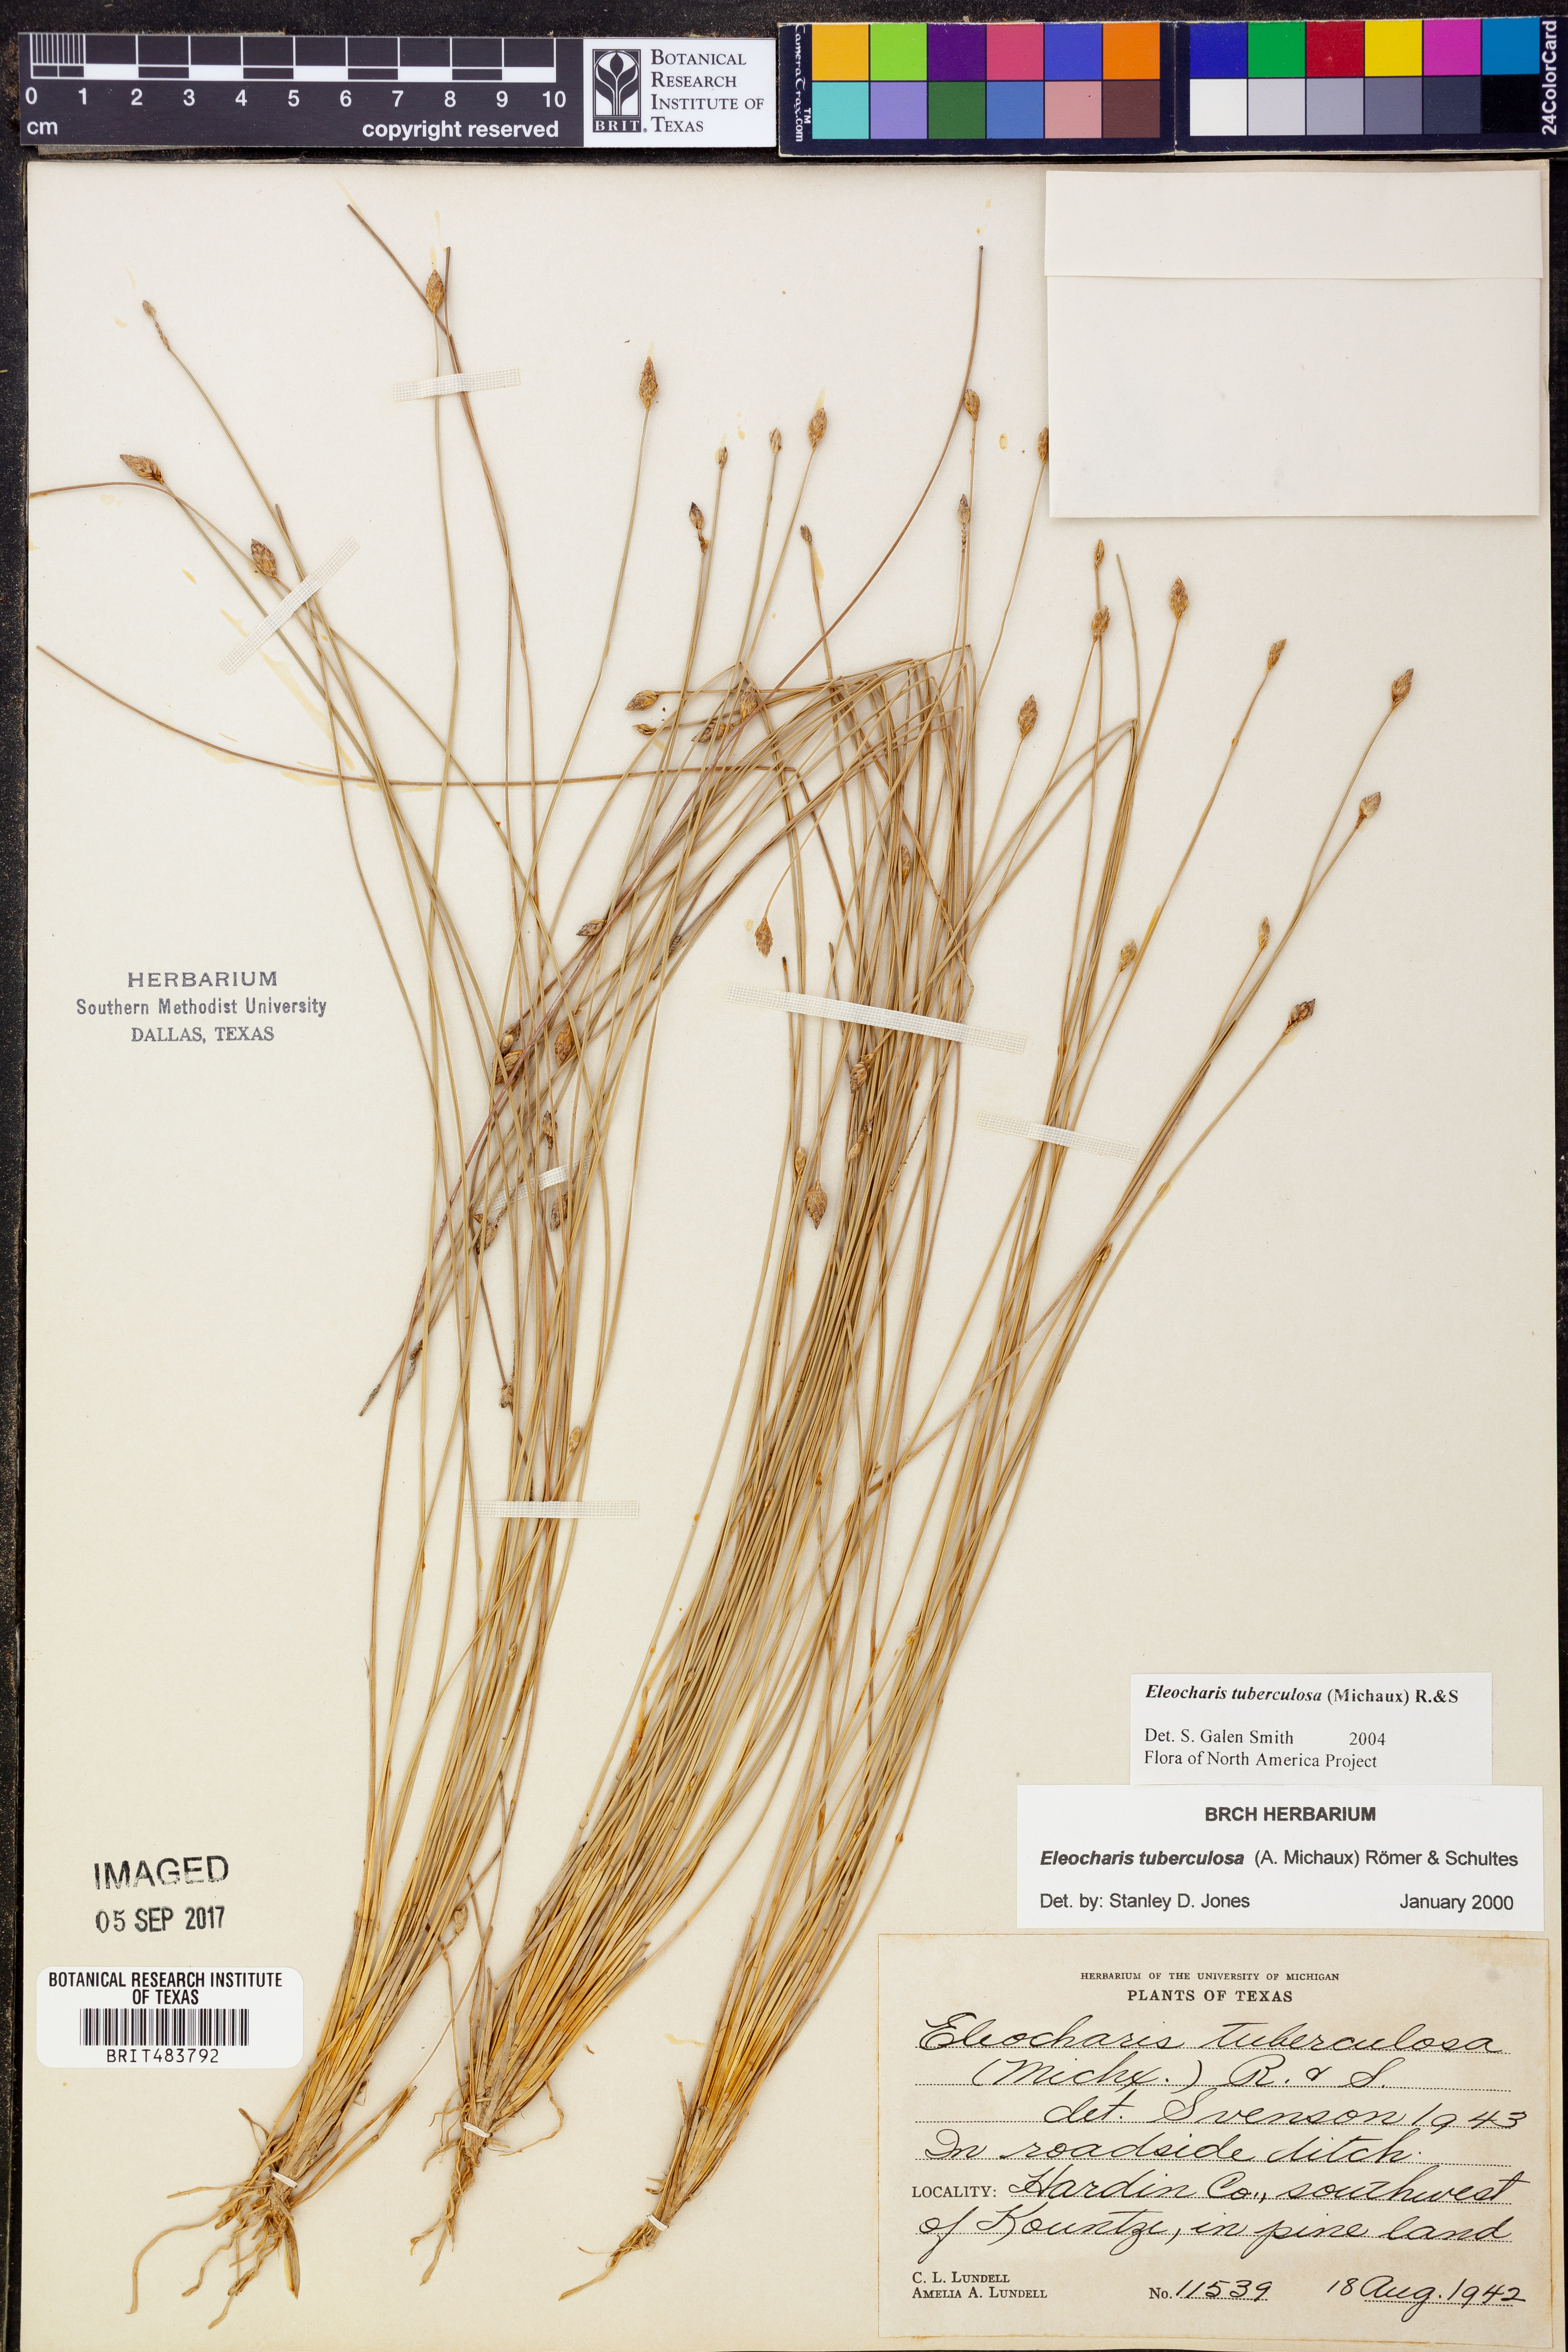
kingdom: Plantae
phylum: Tracheophyta
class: Liliopsida
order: Poales
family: Cyperaceae
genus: Eleocharis
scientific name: Eleocharis tuberculosa
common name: Cone-cup spikerush
